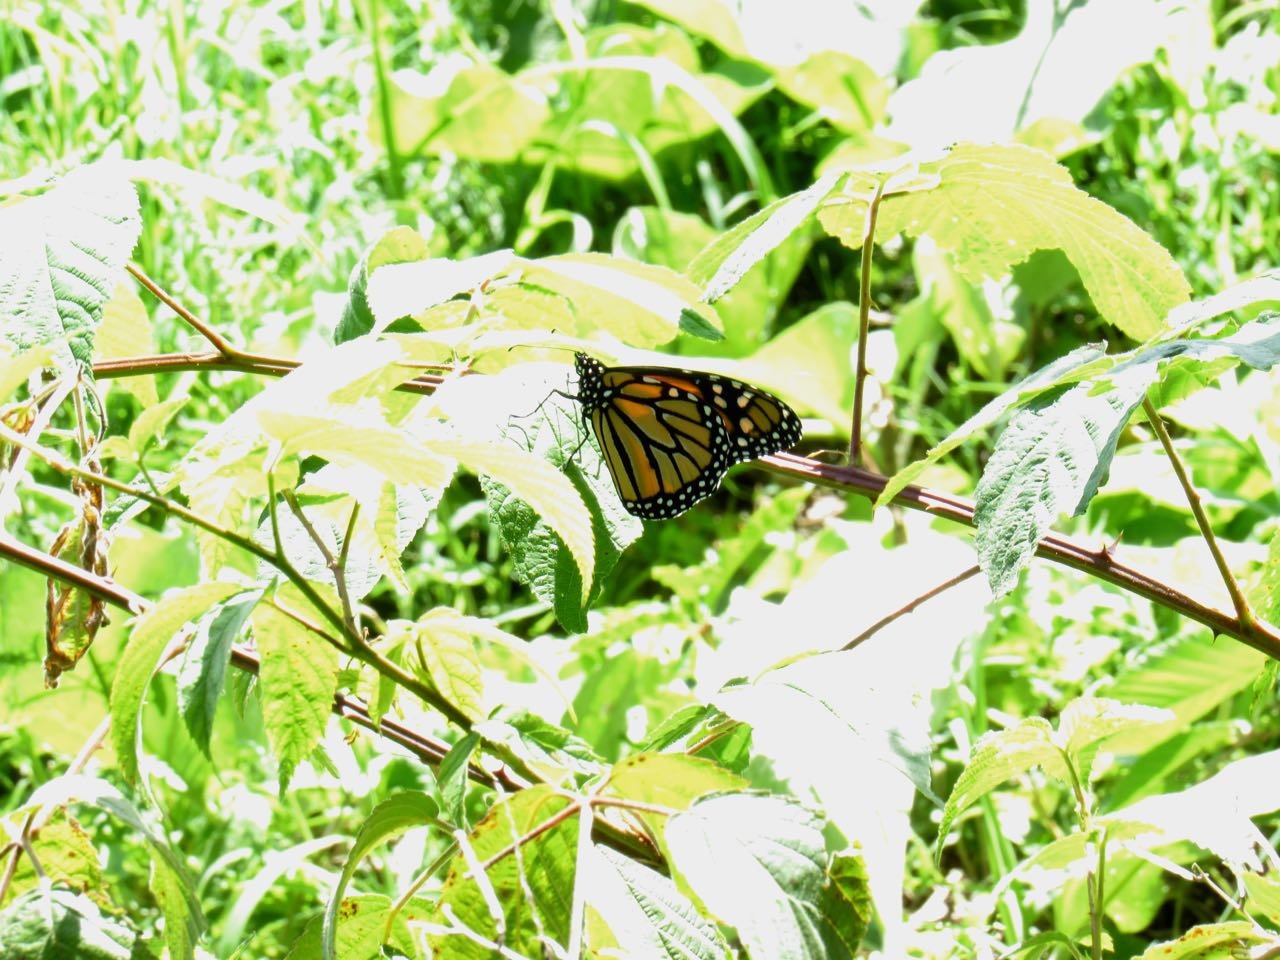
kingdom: Animalia
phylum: Arthropoda
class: Insecta
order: Lepidoptera
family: Nymphalidae
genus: Danaus
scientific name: Danaus plexippus
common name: Monarch
